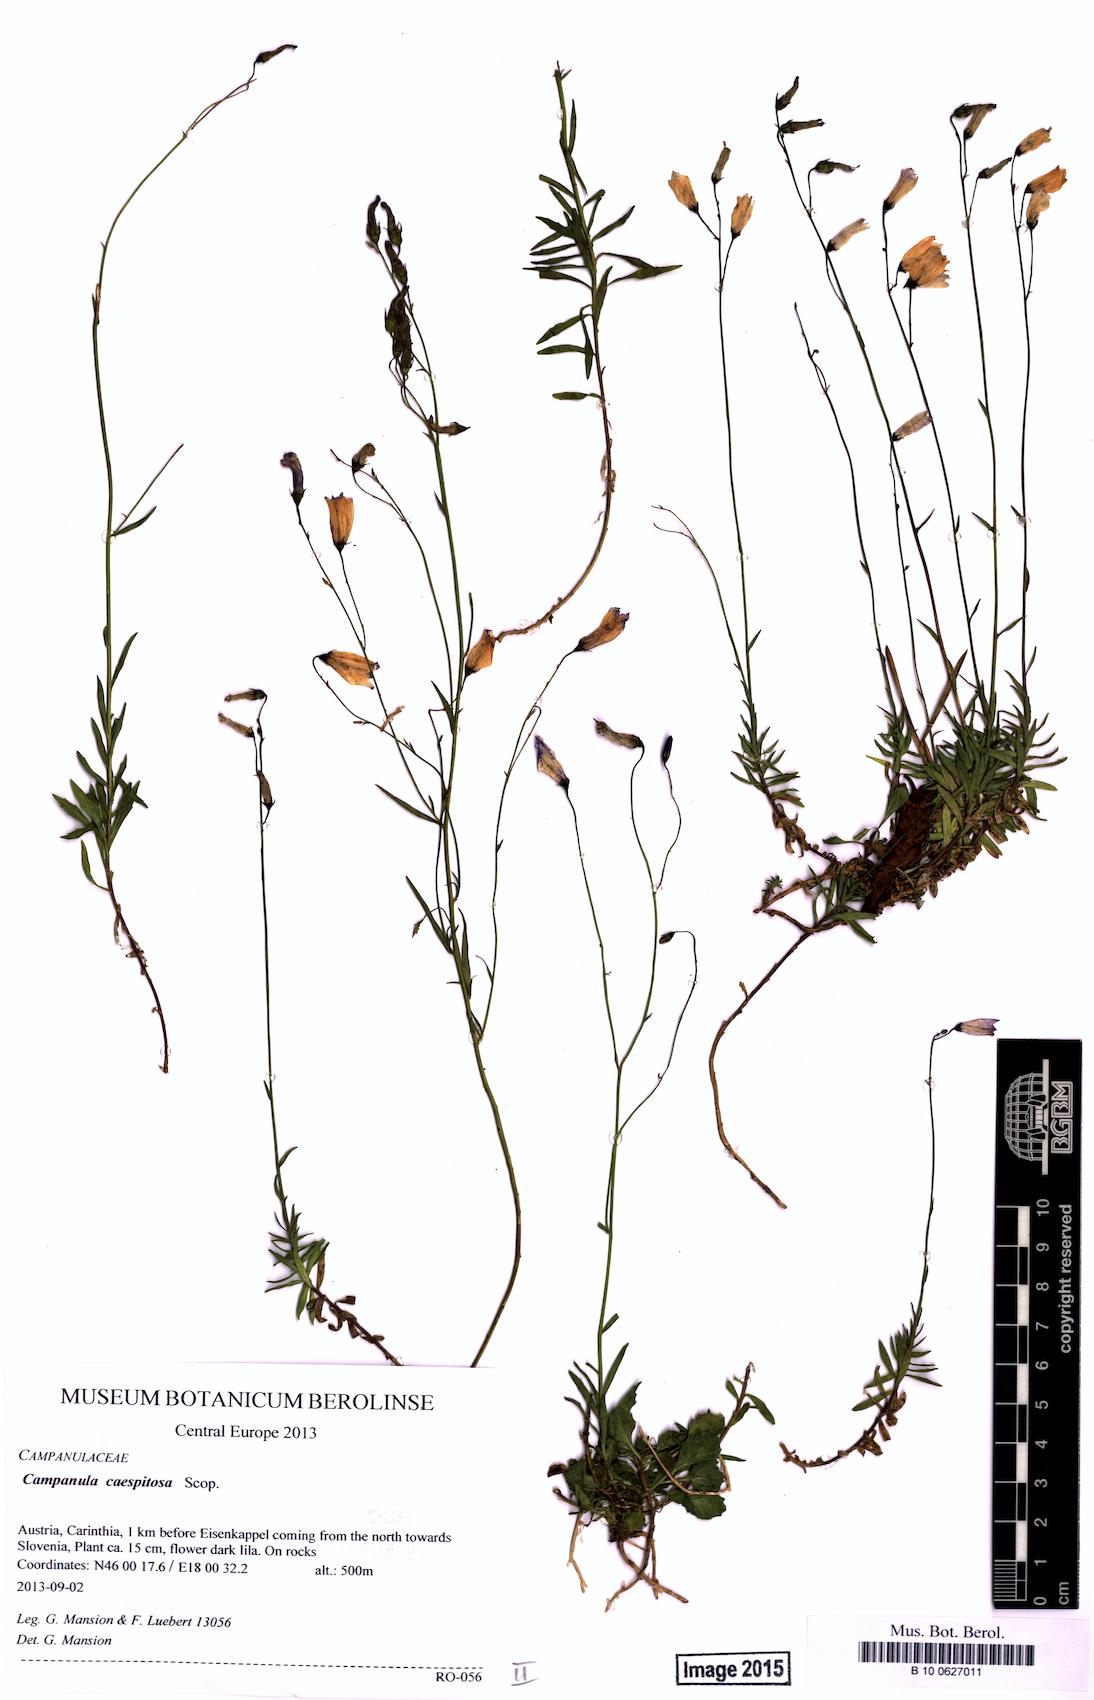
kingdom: Plantae
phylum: Tracheophyta
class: Magnoliopsida
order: Asterales
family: Campanulaceae
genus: Campanula
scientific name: Campanula caespitosa
